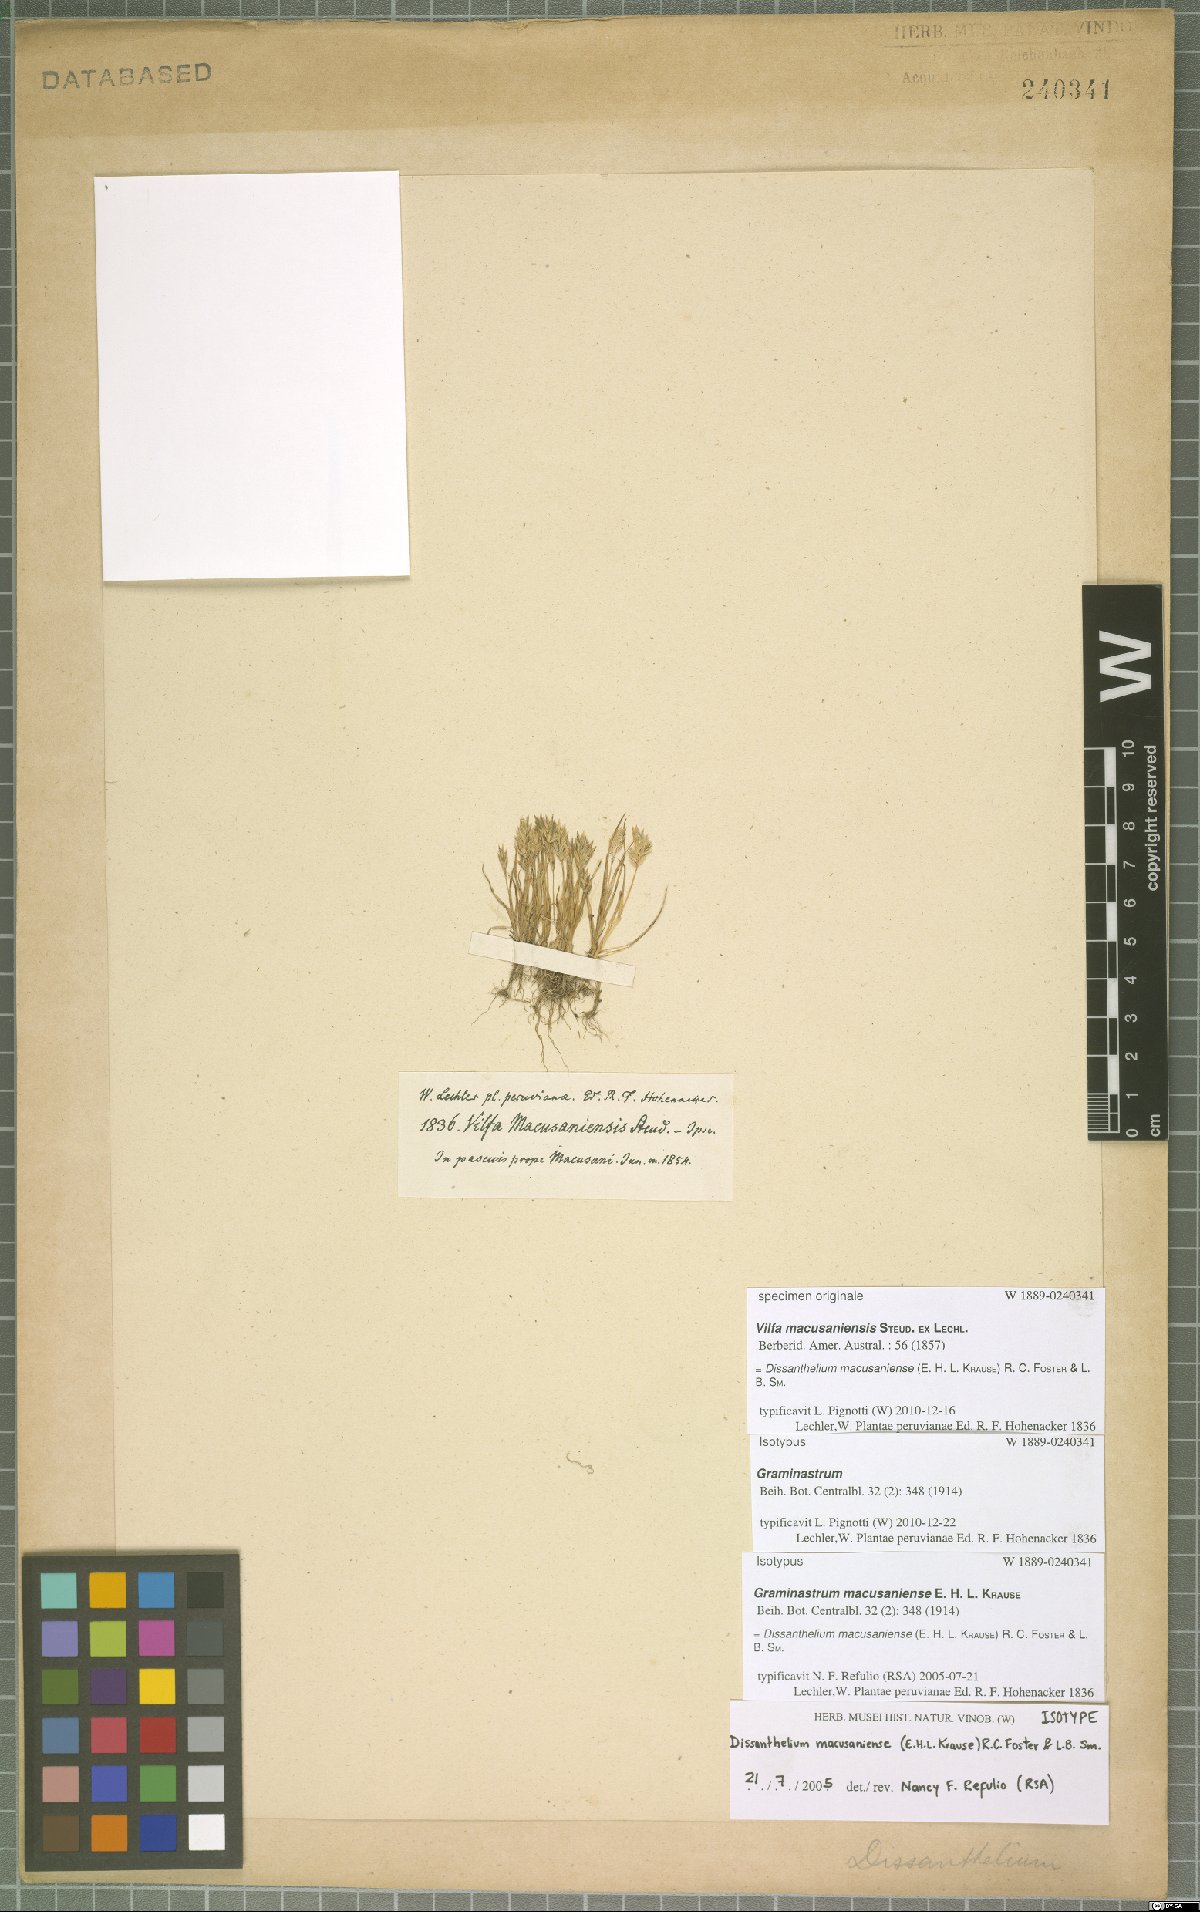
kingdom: Plantae
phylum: Tracheophyta
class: Liliopsida
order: Poales
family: Poaceae
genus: Poa
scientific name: Poa macusaniensis
